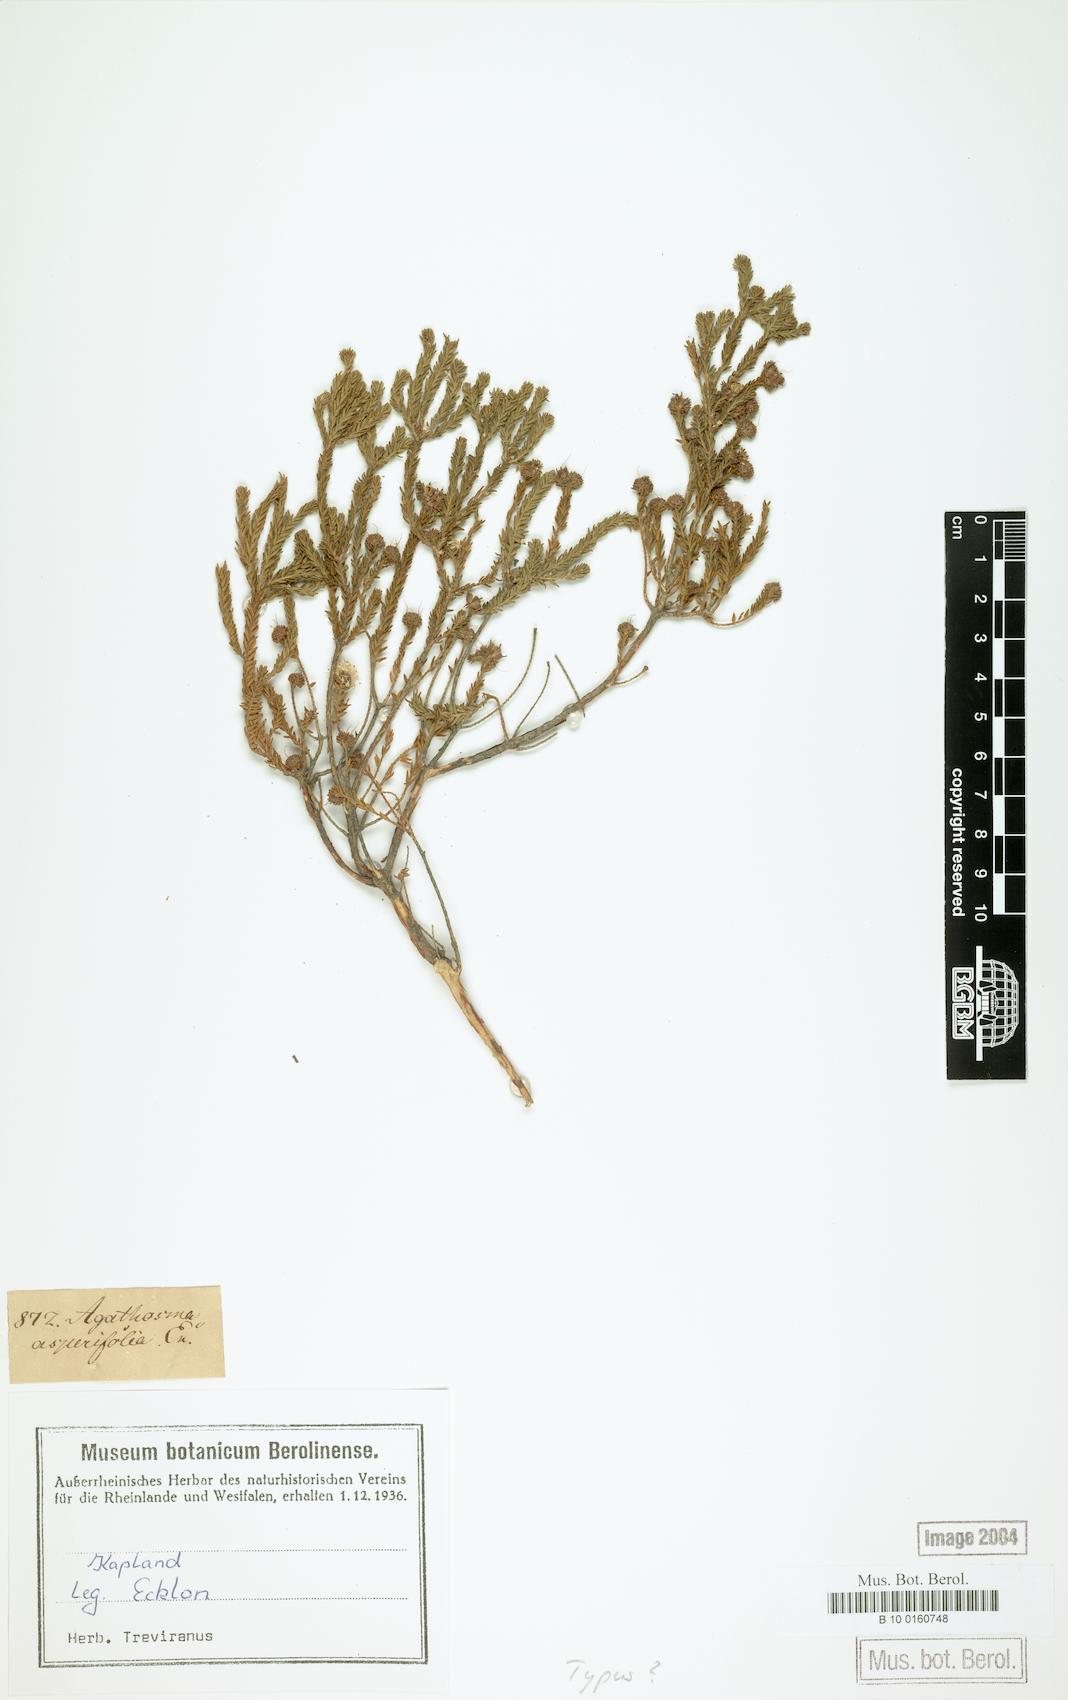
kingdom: Plantae
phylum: Tracheophyta
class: Magnoliopsida
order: Sapindales
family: Rutaceae
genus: Agathosma
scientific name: Agathosma asperifolia
